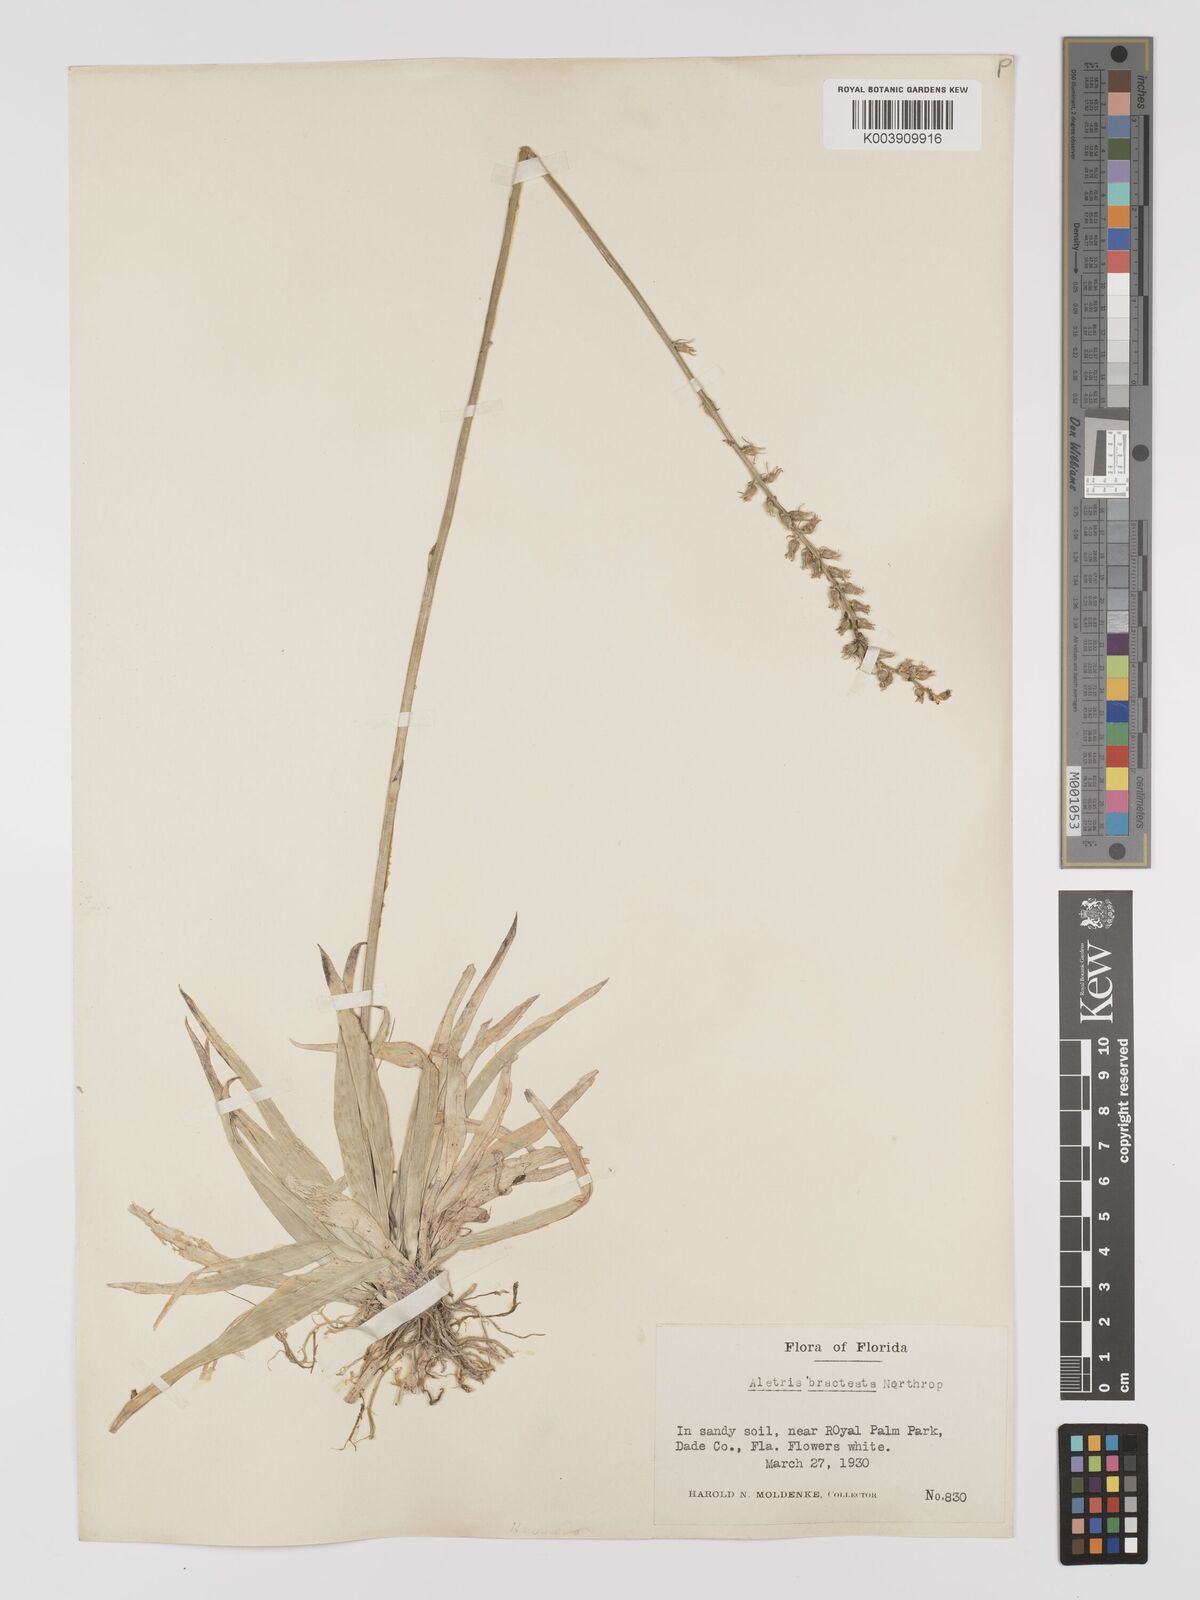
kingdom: Plantae
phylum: Tracheophyta
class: Liliopsida
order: Dioscoreales
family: Nartheciaceae
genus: Aletris
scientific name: Aletris bracteata
